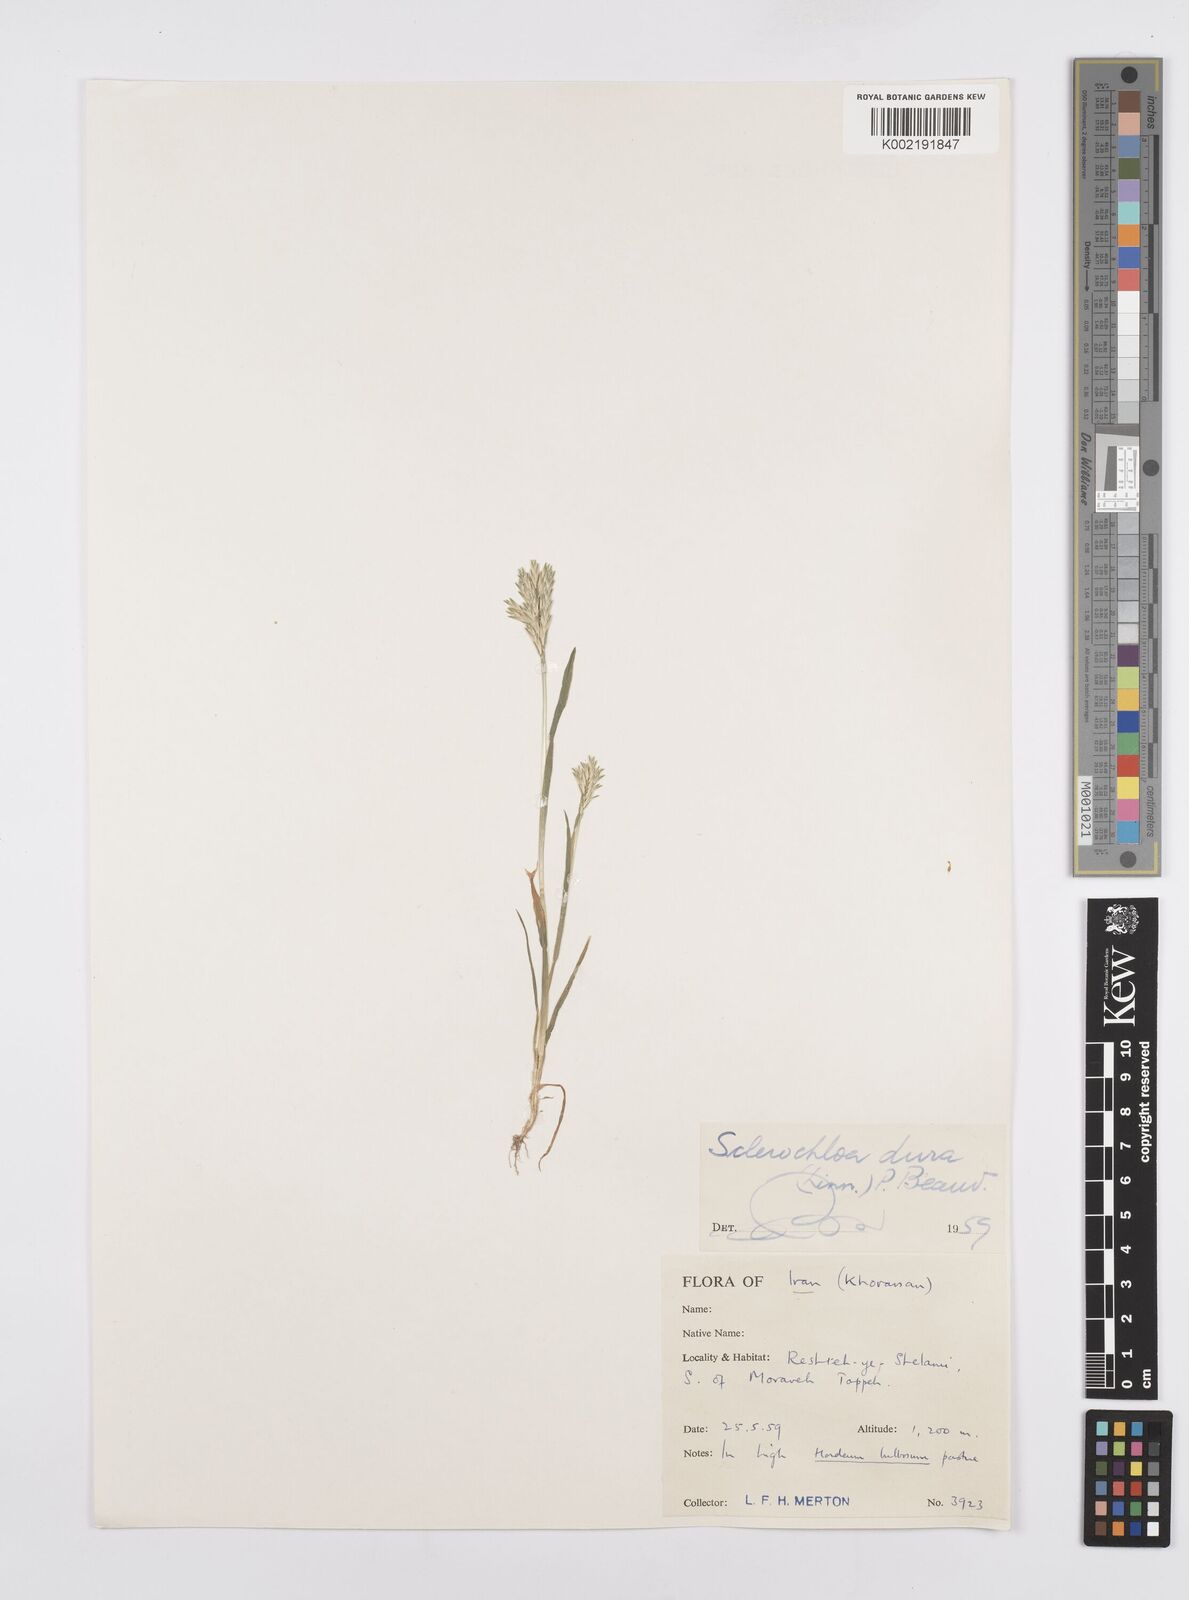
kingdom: Plantae
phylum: Tracheophyta
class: Liliopsida
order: Poales
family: Poaceae
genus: Sclerochloa
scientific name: Sclerochloa dura
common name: Common hardgrass
